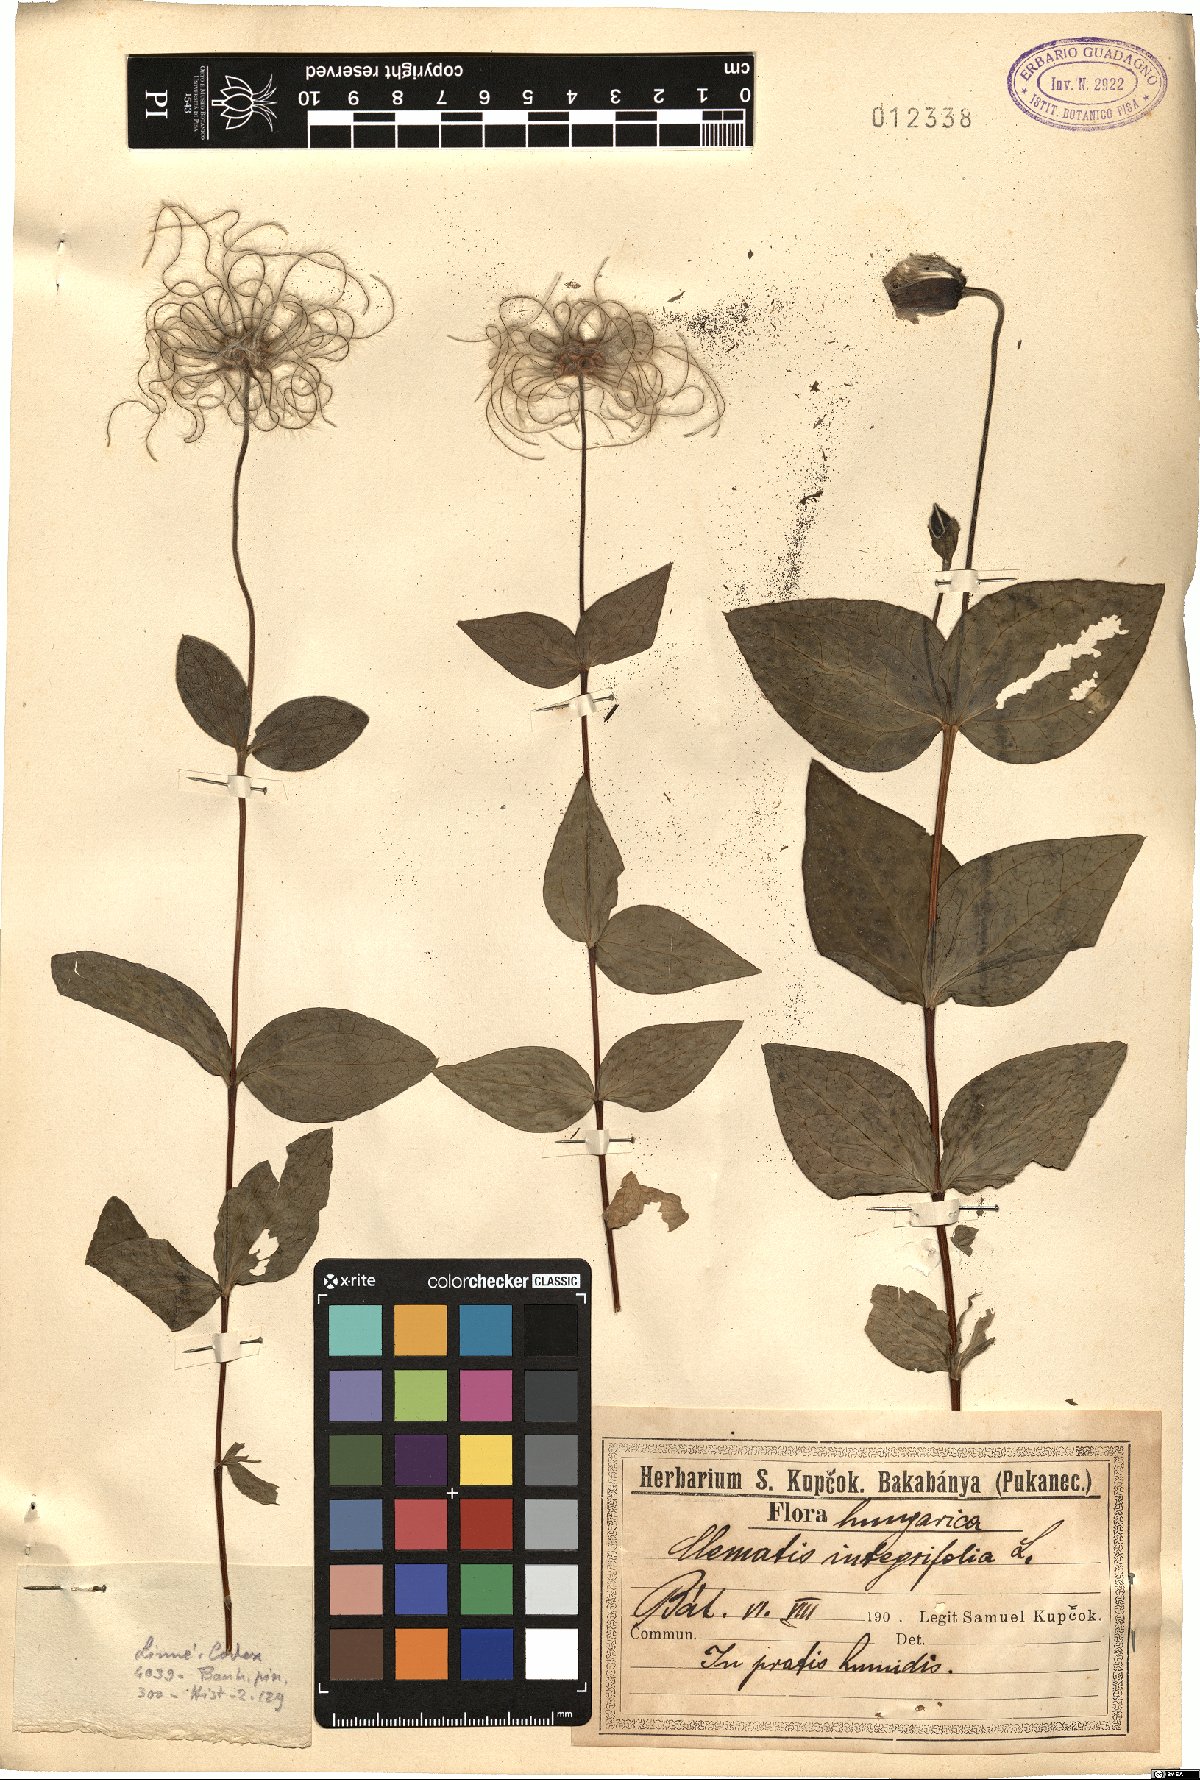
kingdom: Plantae
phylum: Tracheophyta
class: Magnoliopsida
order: Ranunculales
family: Ranunculaceae
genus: Clematis
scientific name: Clematis integrifolia
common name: Solitary clematis
